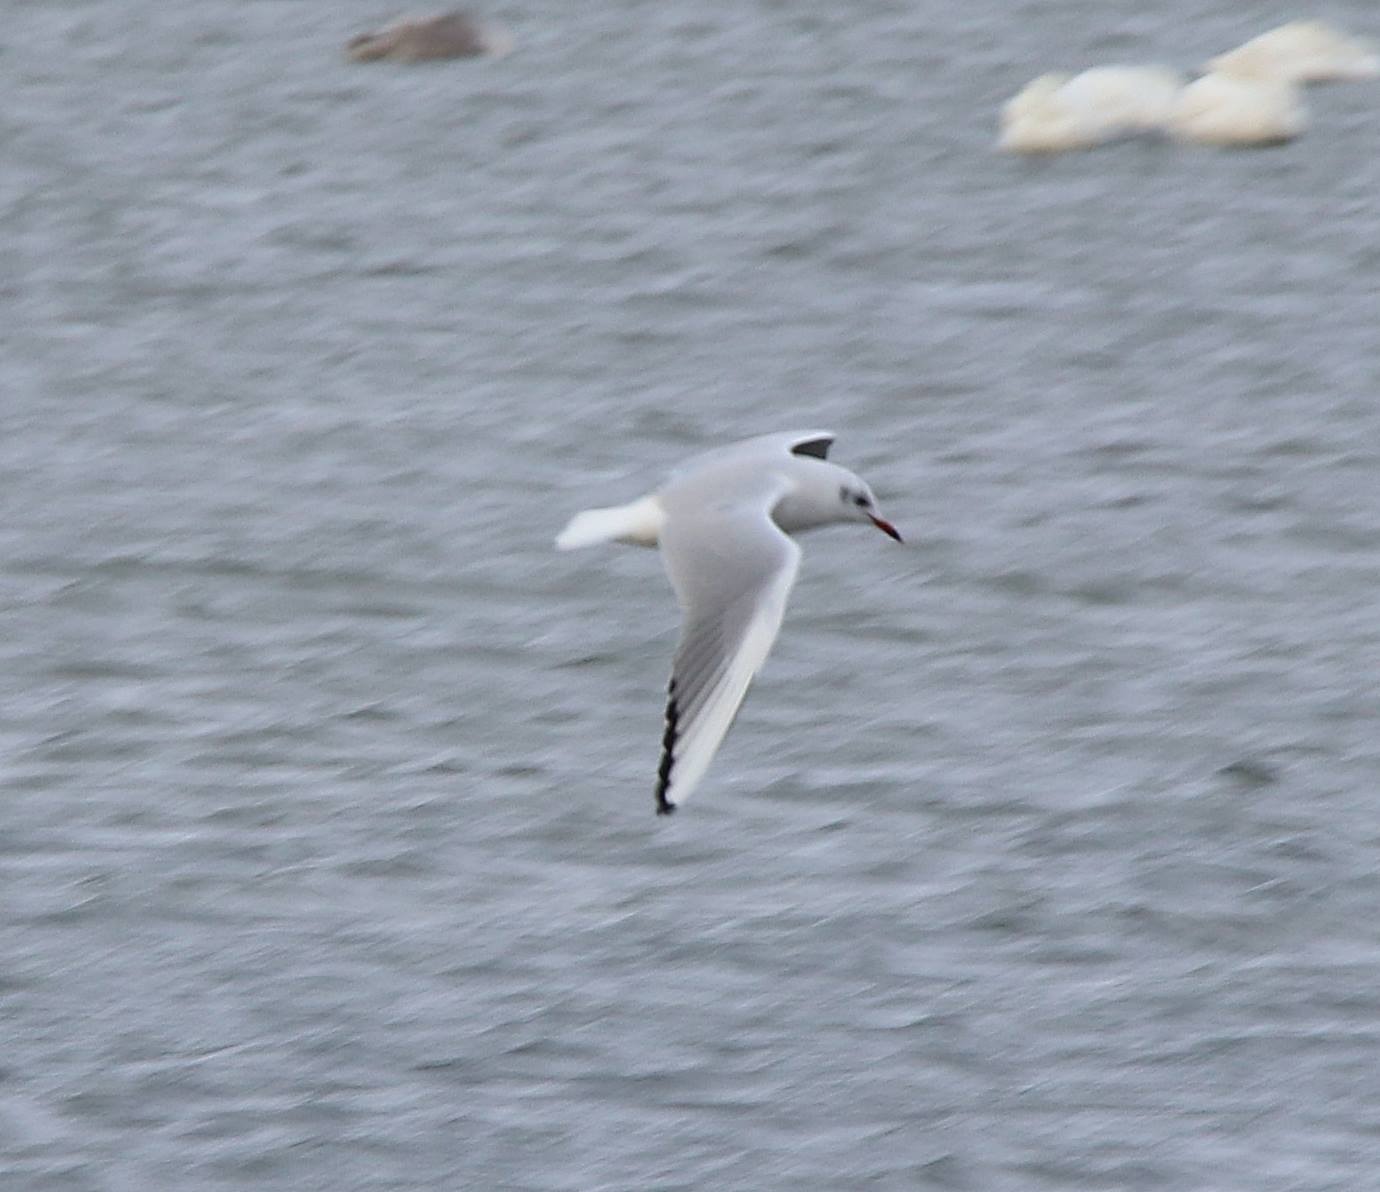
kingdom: Animalia
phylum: Chordata
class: Aves
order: Charadriiformes
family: Laridae
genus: Chroicocephalus
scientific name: Chroicocephalus ridibundus
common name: Hættemåge
